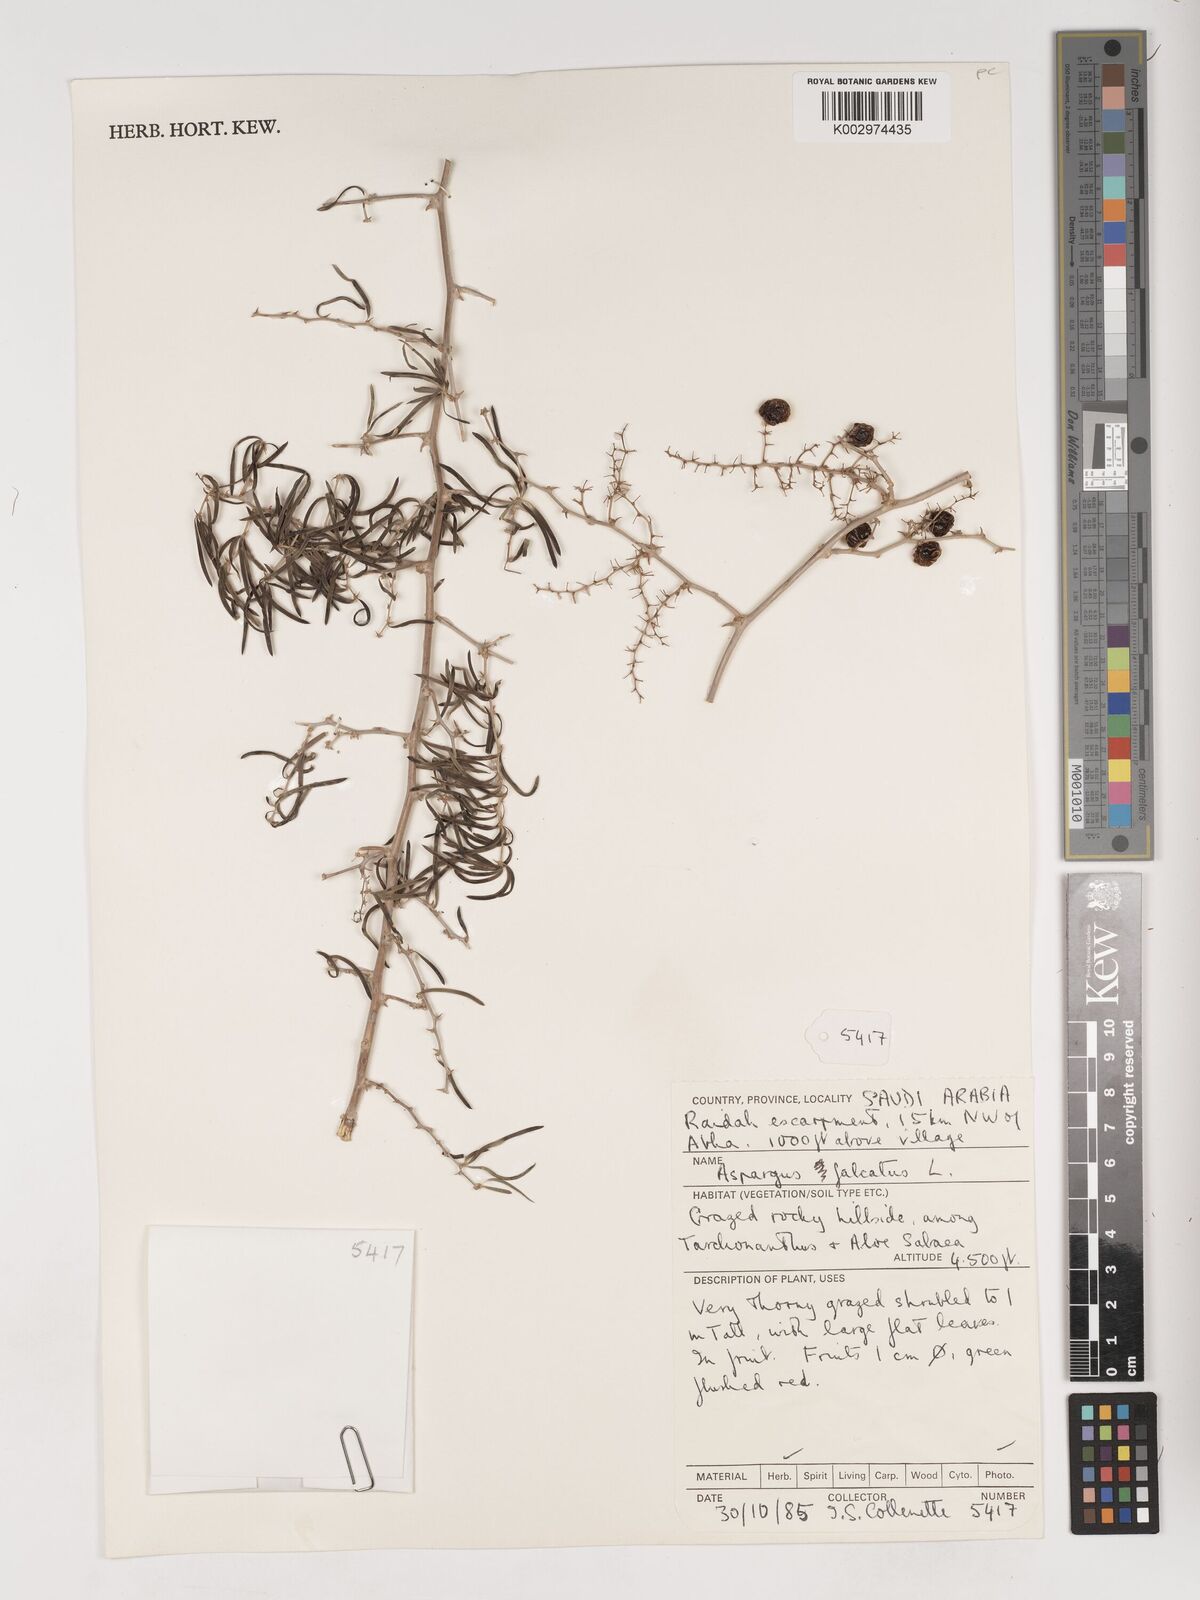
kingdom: Plantae
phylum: Tracheophyta
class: Liliopsida
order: Asparagales
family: Asparagaceae
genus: Asparagus
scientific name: Asparagus falcatus
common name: Asparagus
